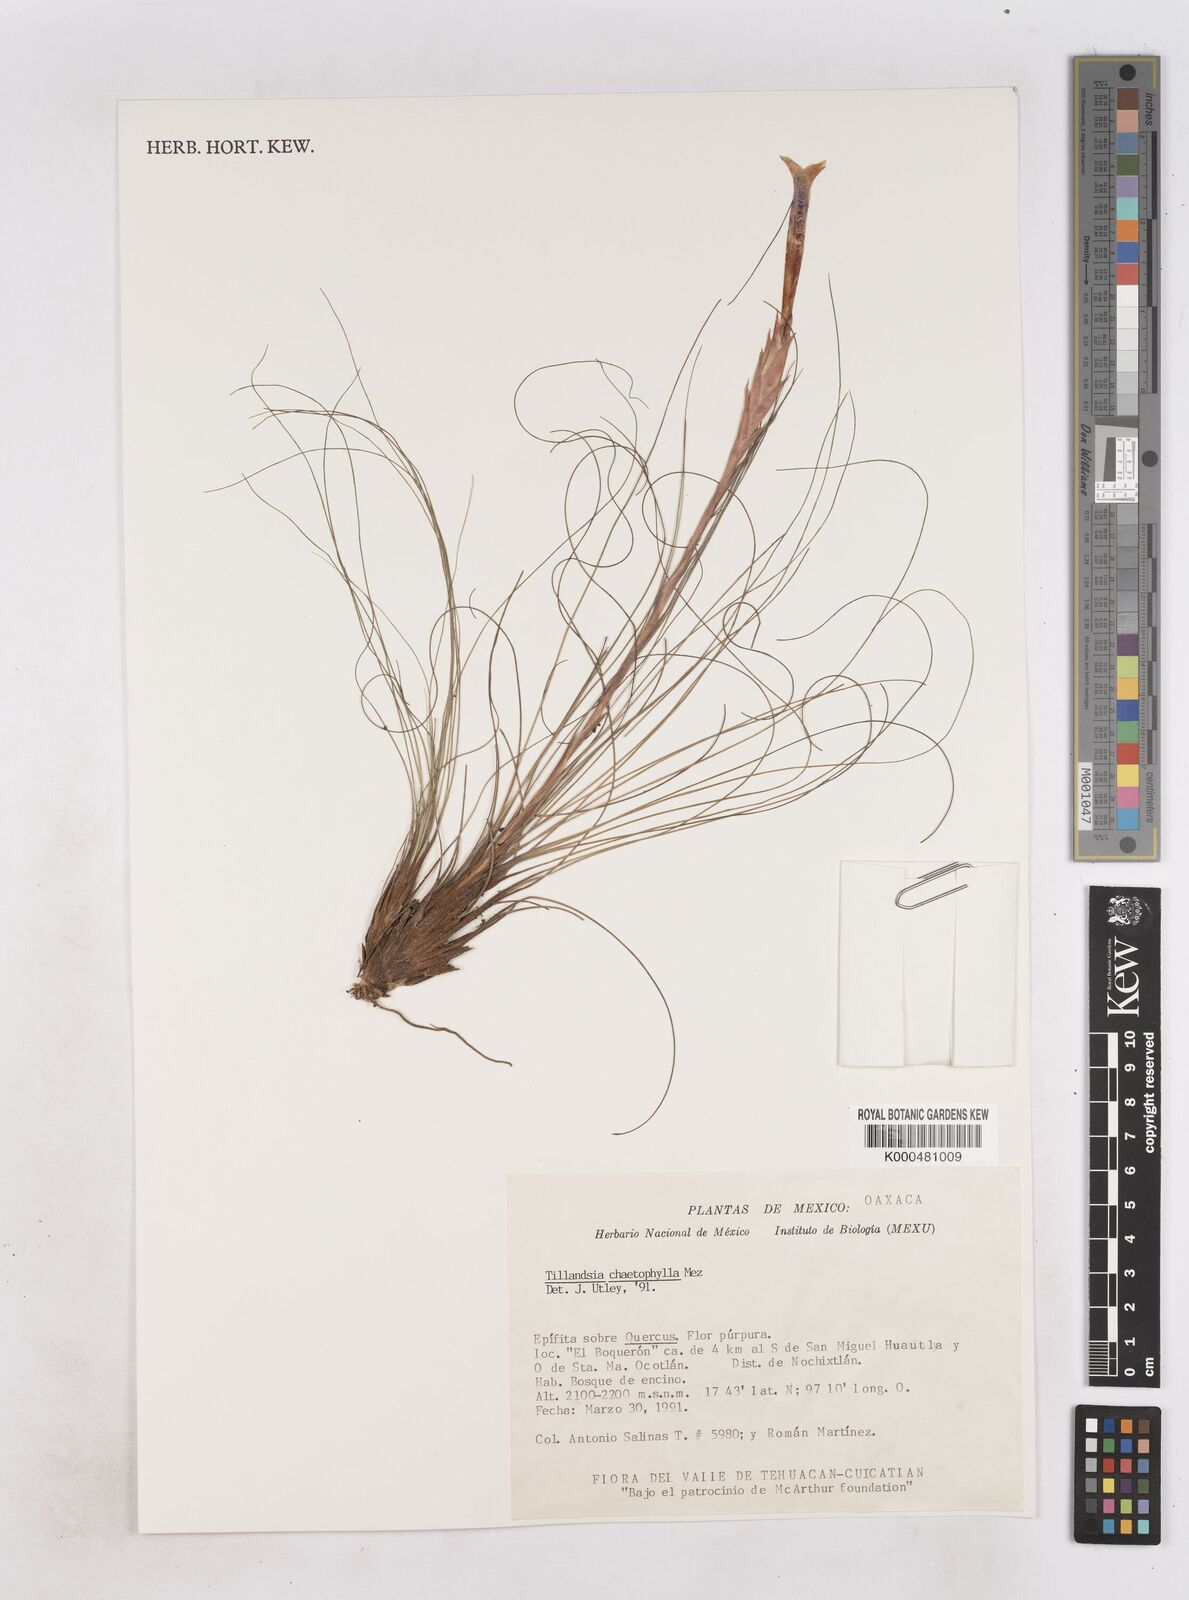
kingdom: Plantae
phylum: Tracheophyta
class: Liliopsida
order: Poales
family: Bromeliaceae
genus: Tillandsia
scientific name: Tillandsia chaetophylla
